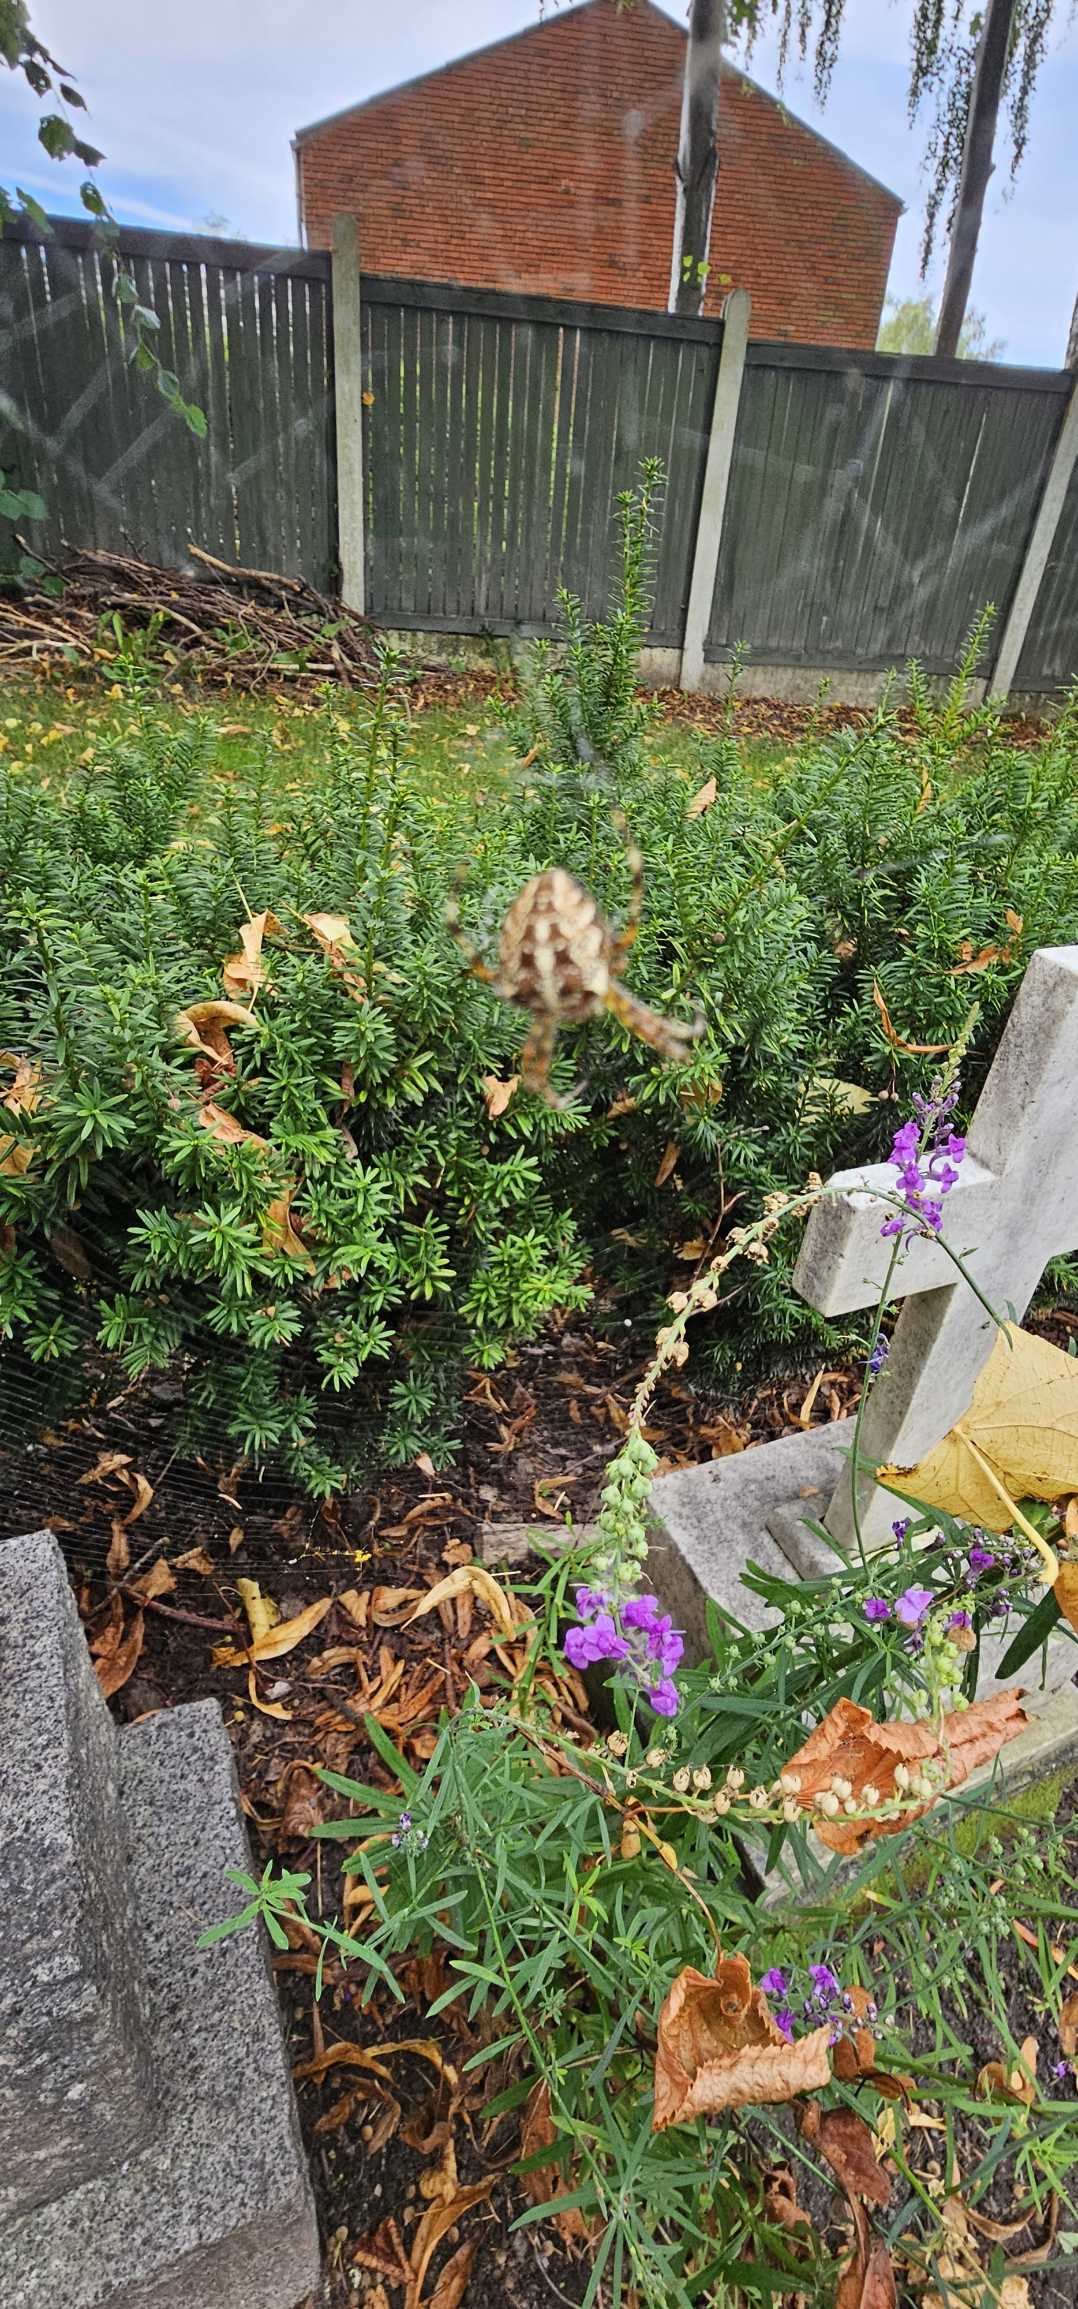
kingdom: Animalia
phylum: Arthropoda
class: Arachnida
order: Araneae
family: Araneidae
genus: Araneus
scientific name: Araneus diadematus
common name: Korsedderkop
